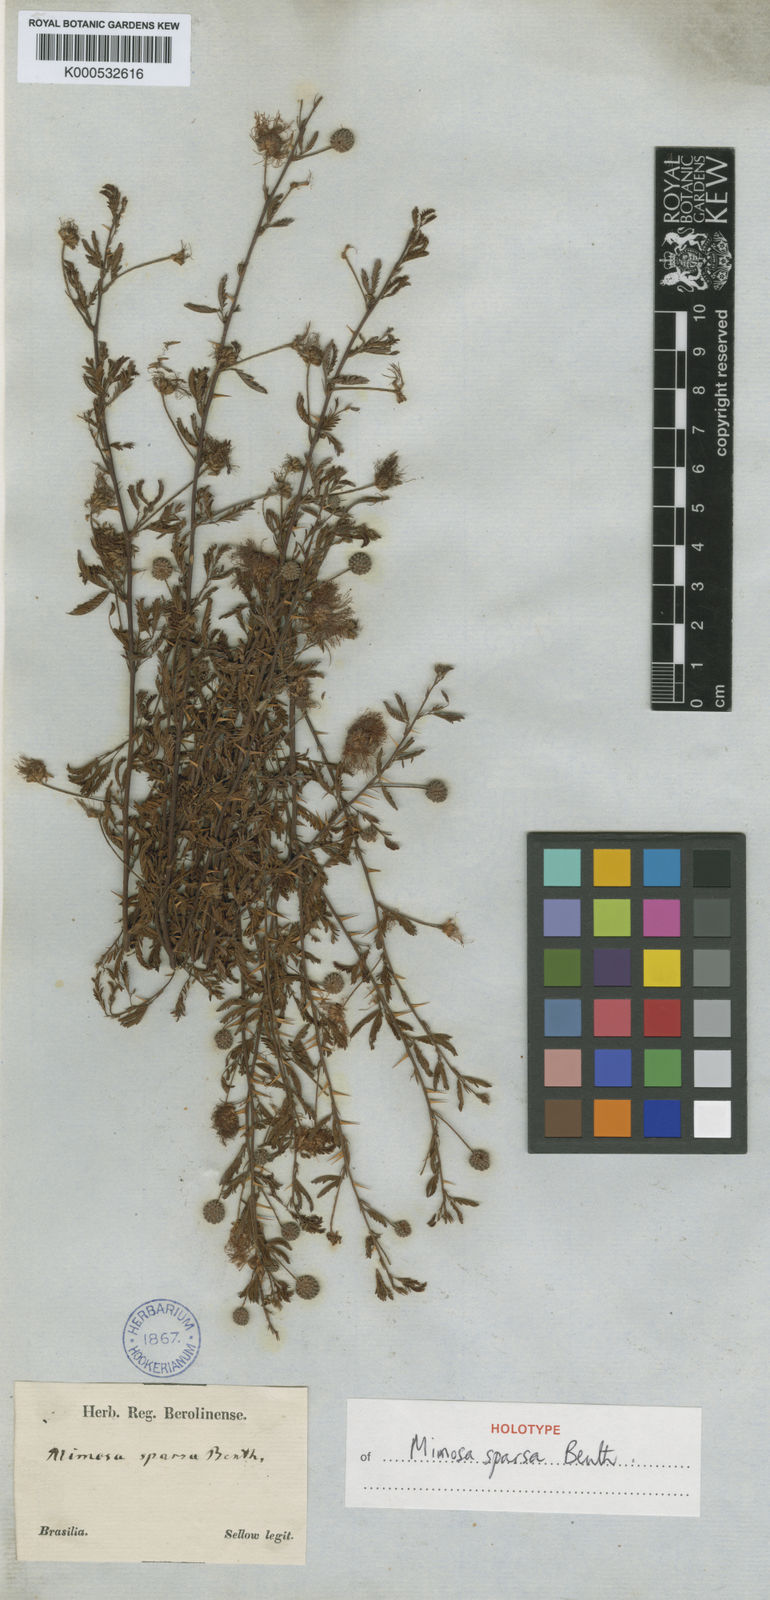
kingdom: Plantae
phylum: Tracheophyta
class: Magnoliopsida
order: Fabales
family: Fabaceae
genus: Mimosa
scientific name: Mimosa sparsa
